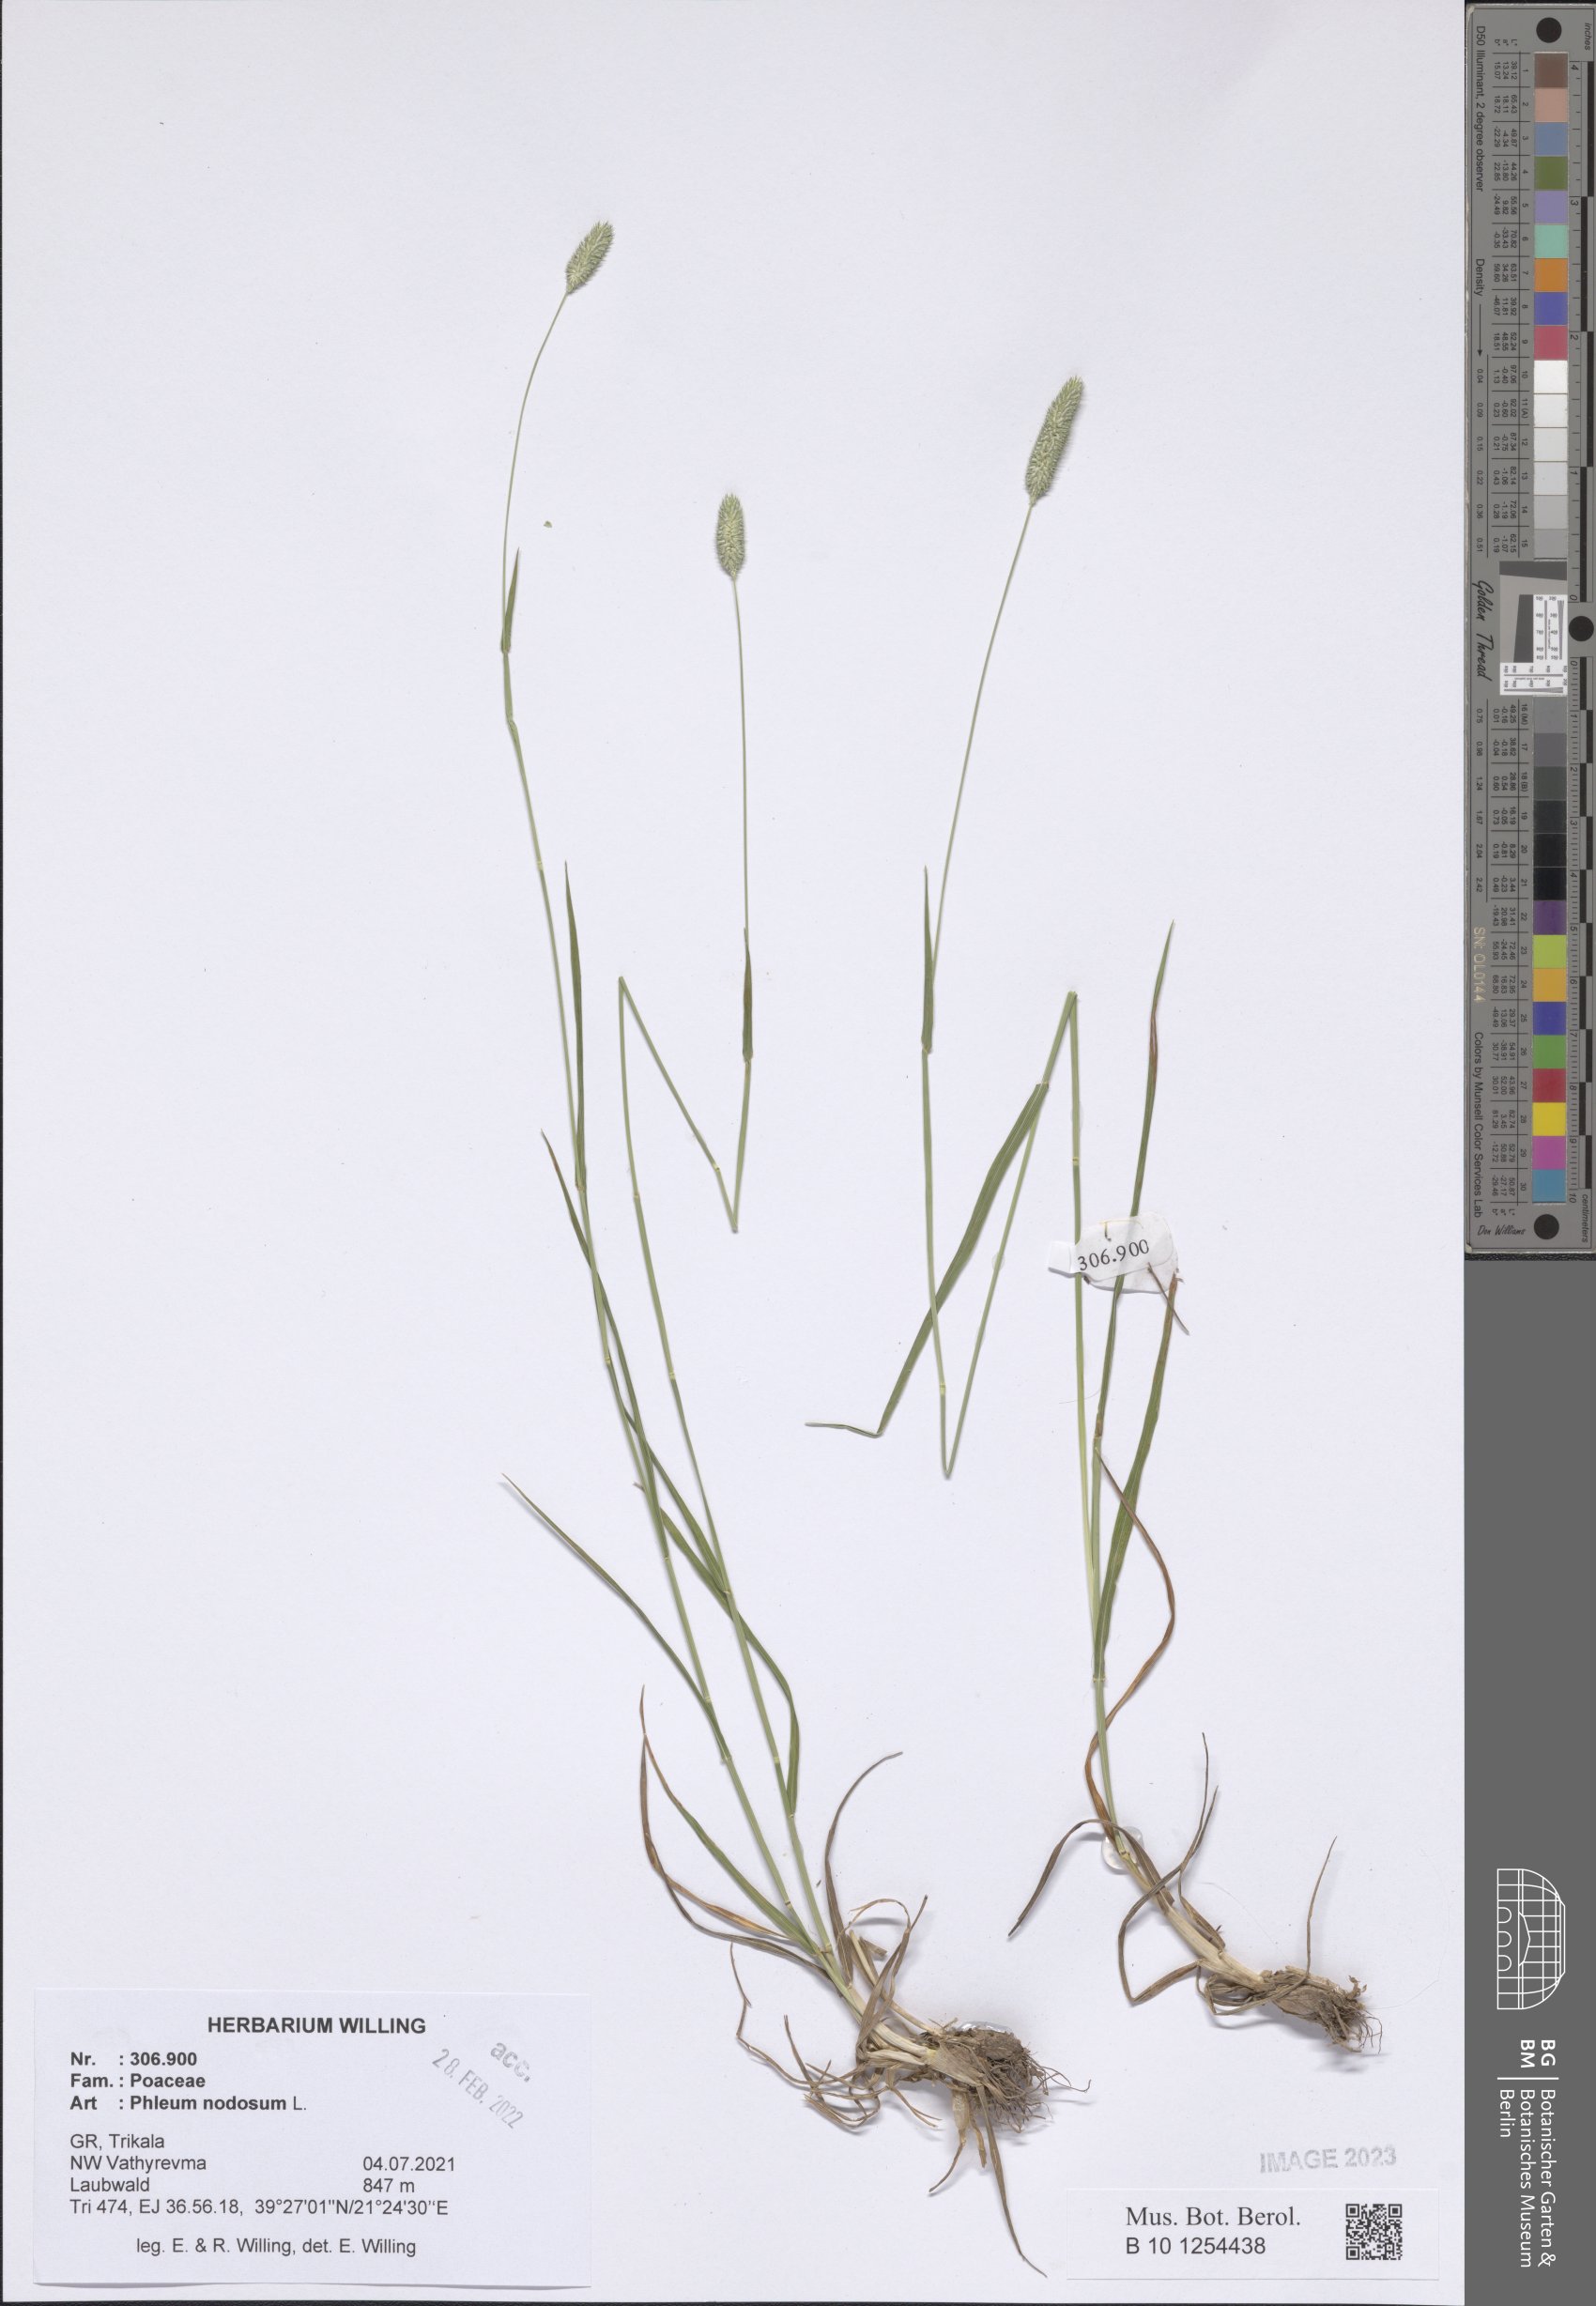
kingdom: Plantae
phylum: Tracheophyta
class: Liliopsida
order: Poales
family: Poaceae
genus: Phleum
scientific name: Phleum pratense
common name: Timothy grass
